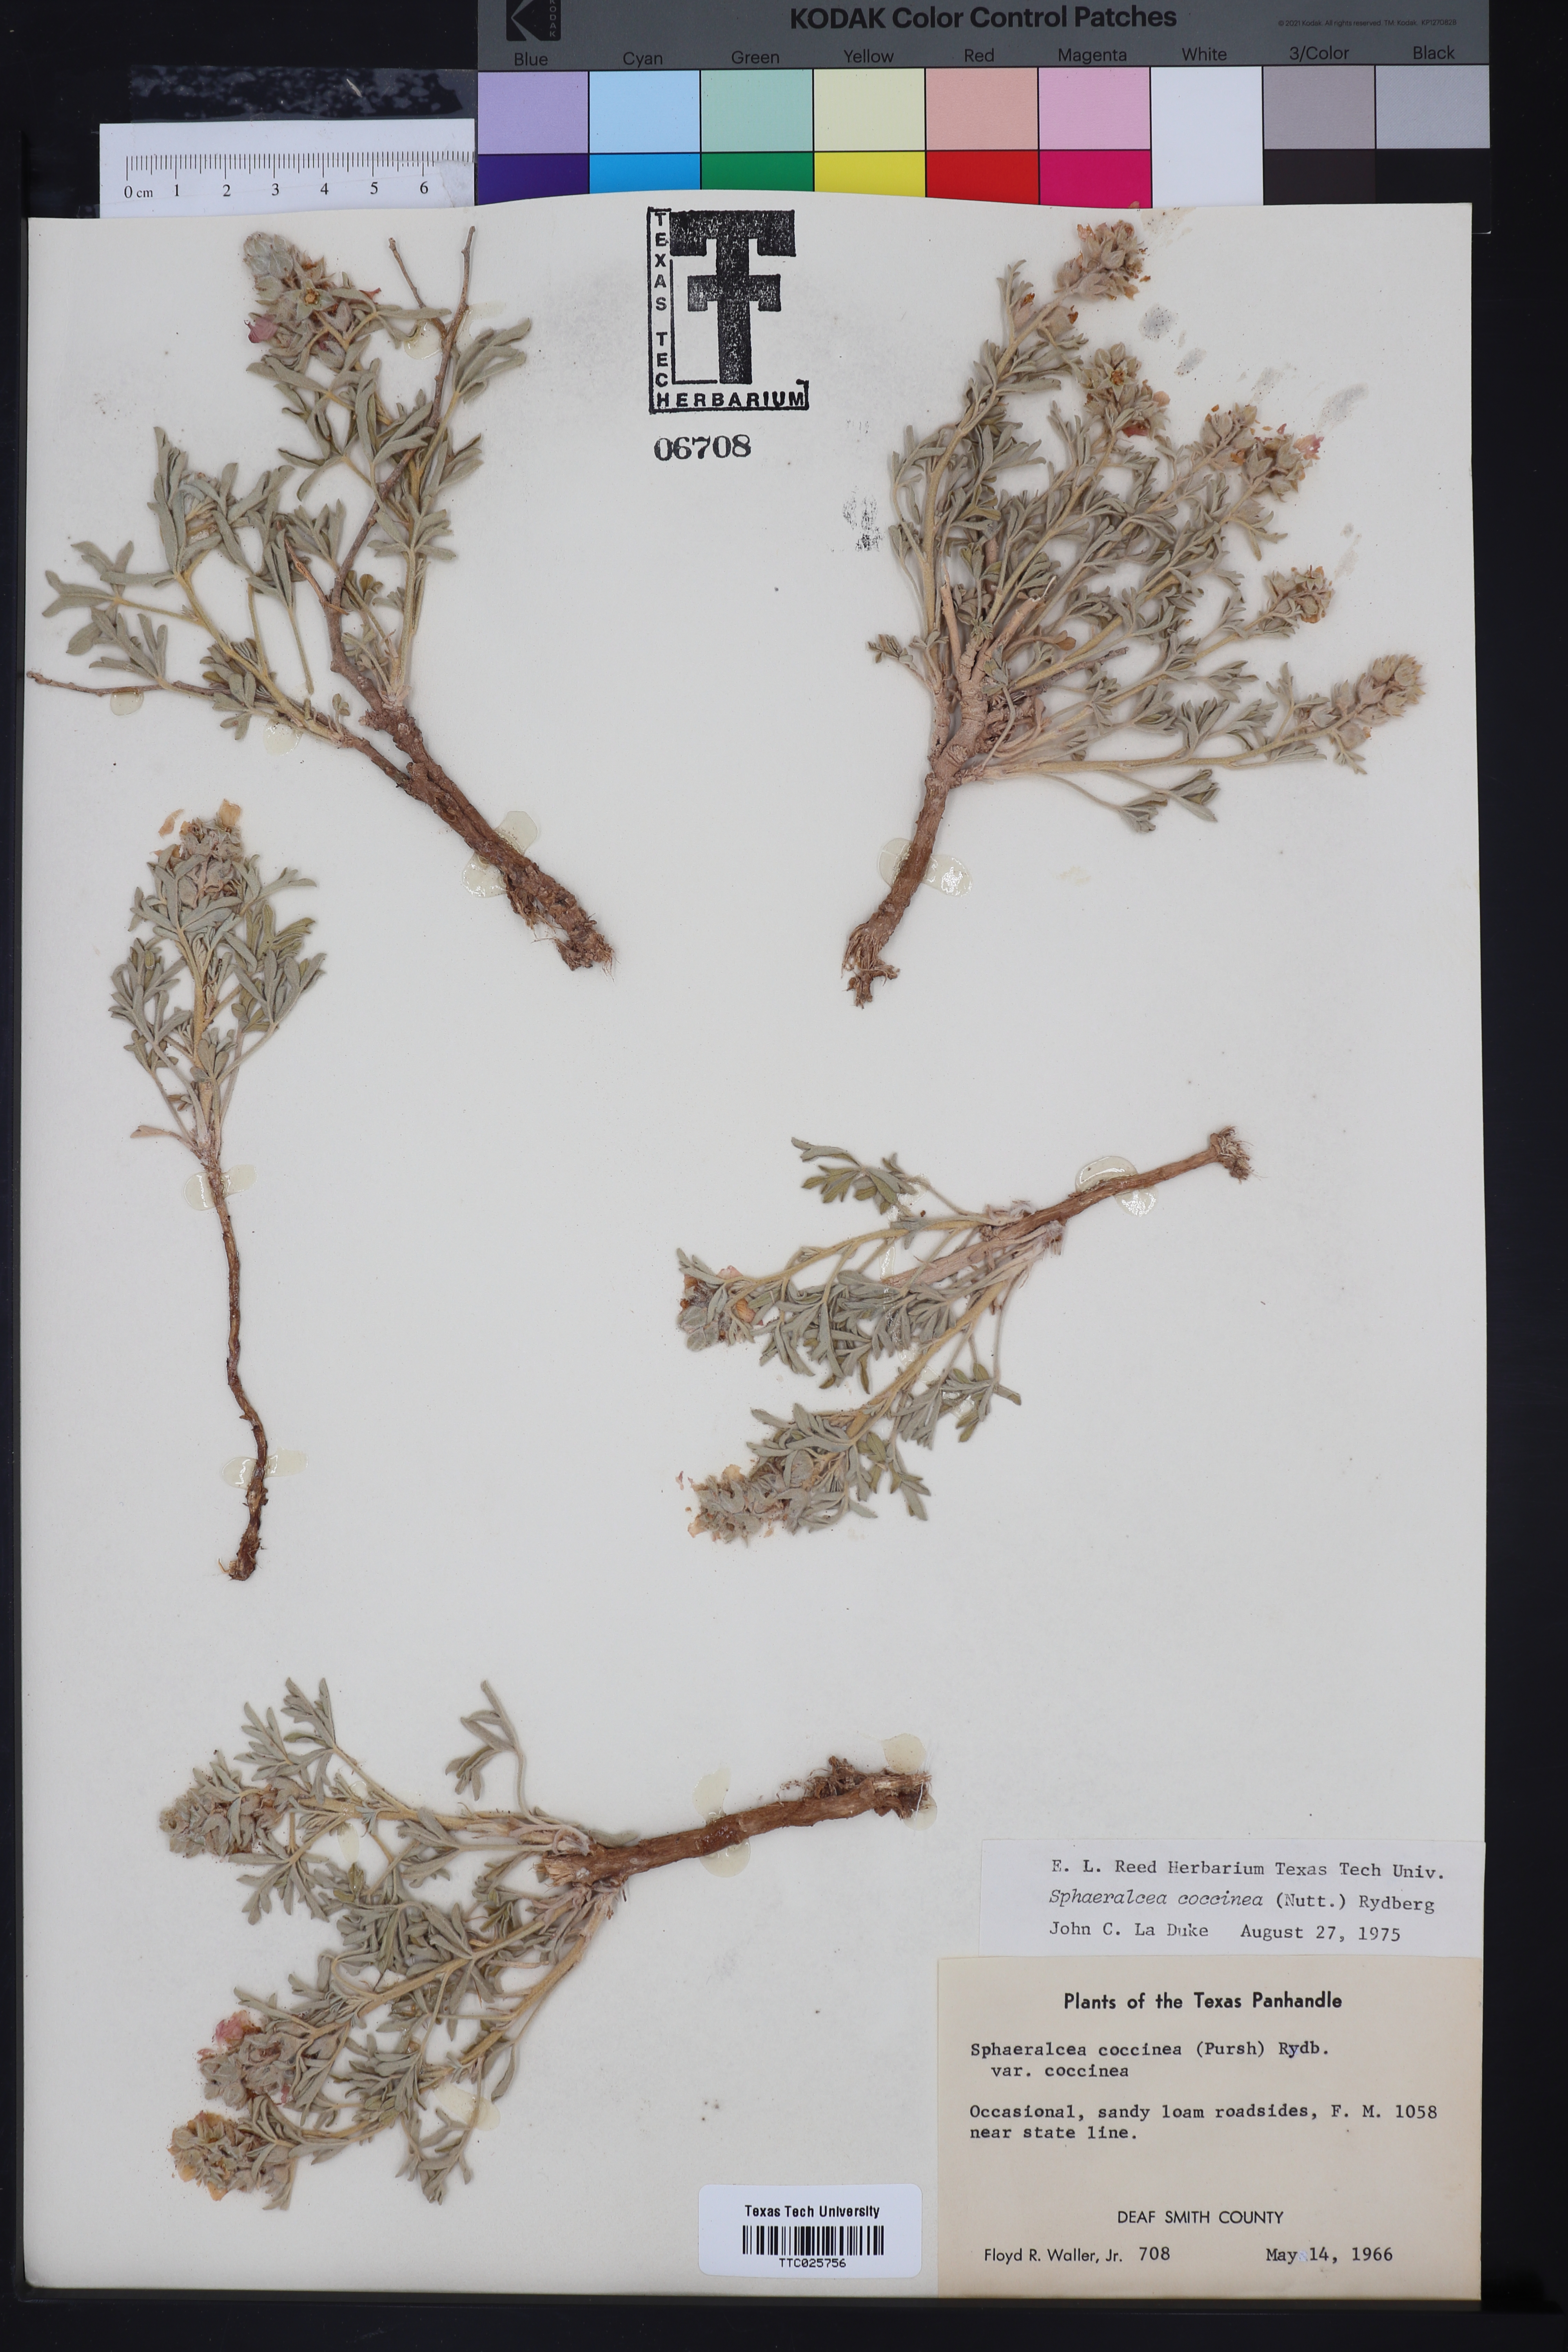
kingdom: Plantae
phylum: Tracheophyta
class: Magnoliopsida
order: Malvales
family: Malvaceae
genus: Sphaeralcea
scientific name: Sphaeralcea coccinea
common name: Moss-rose
